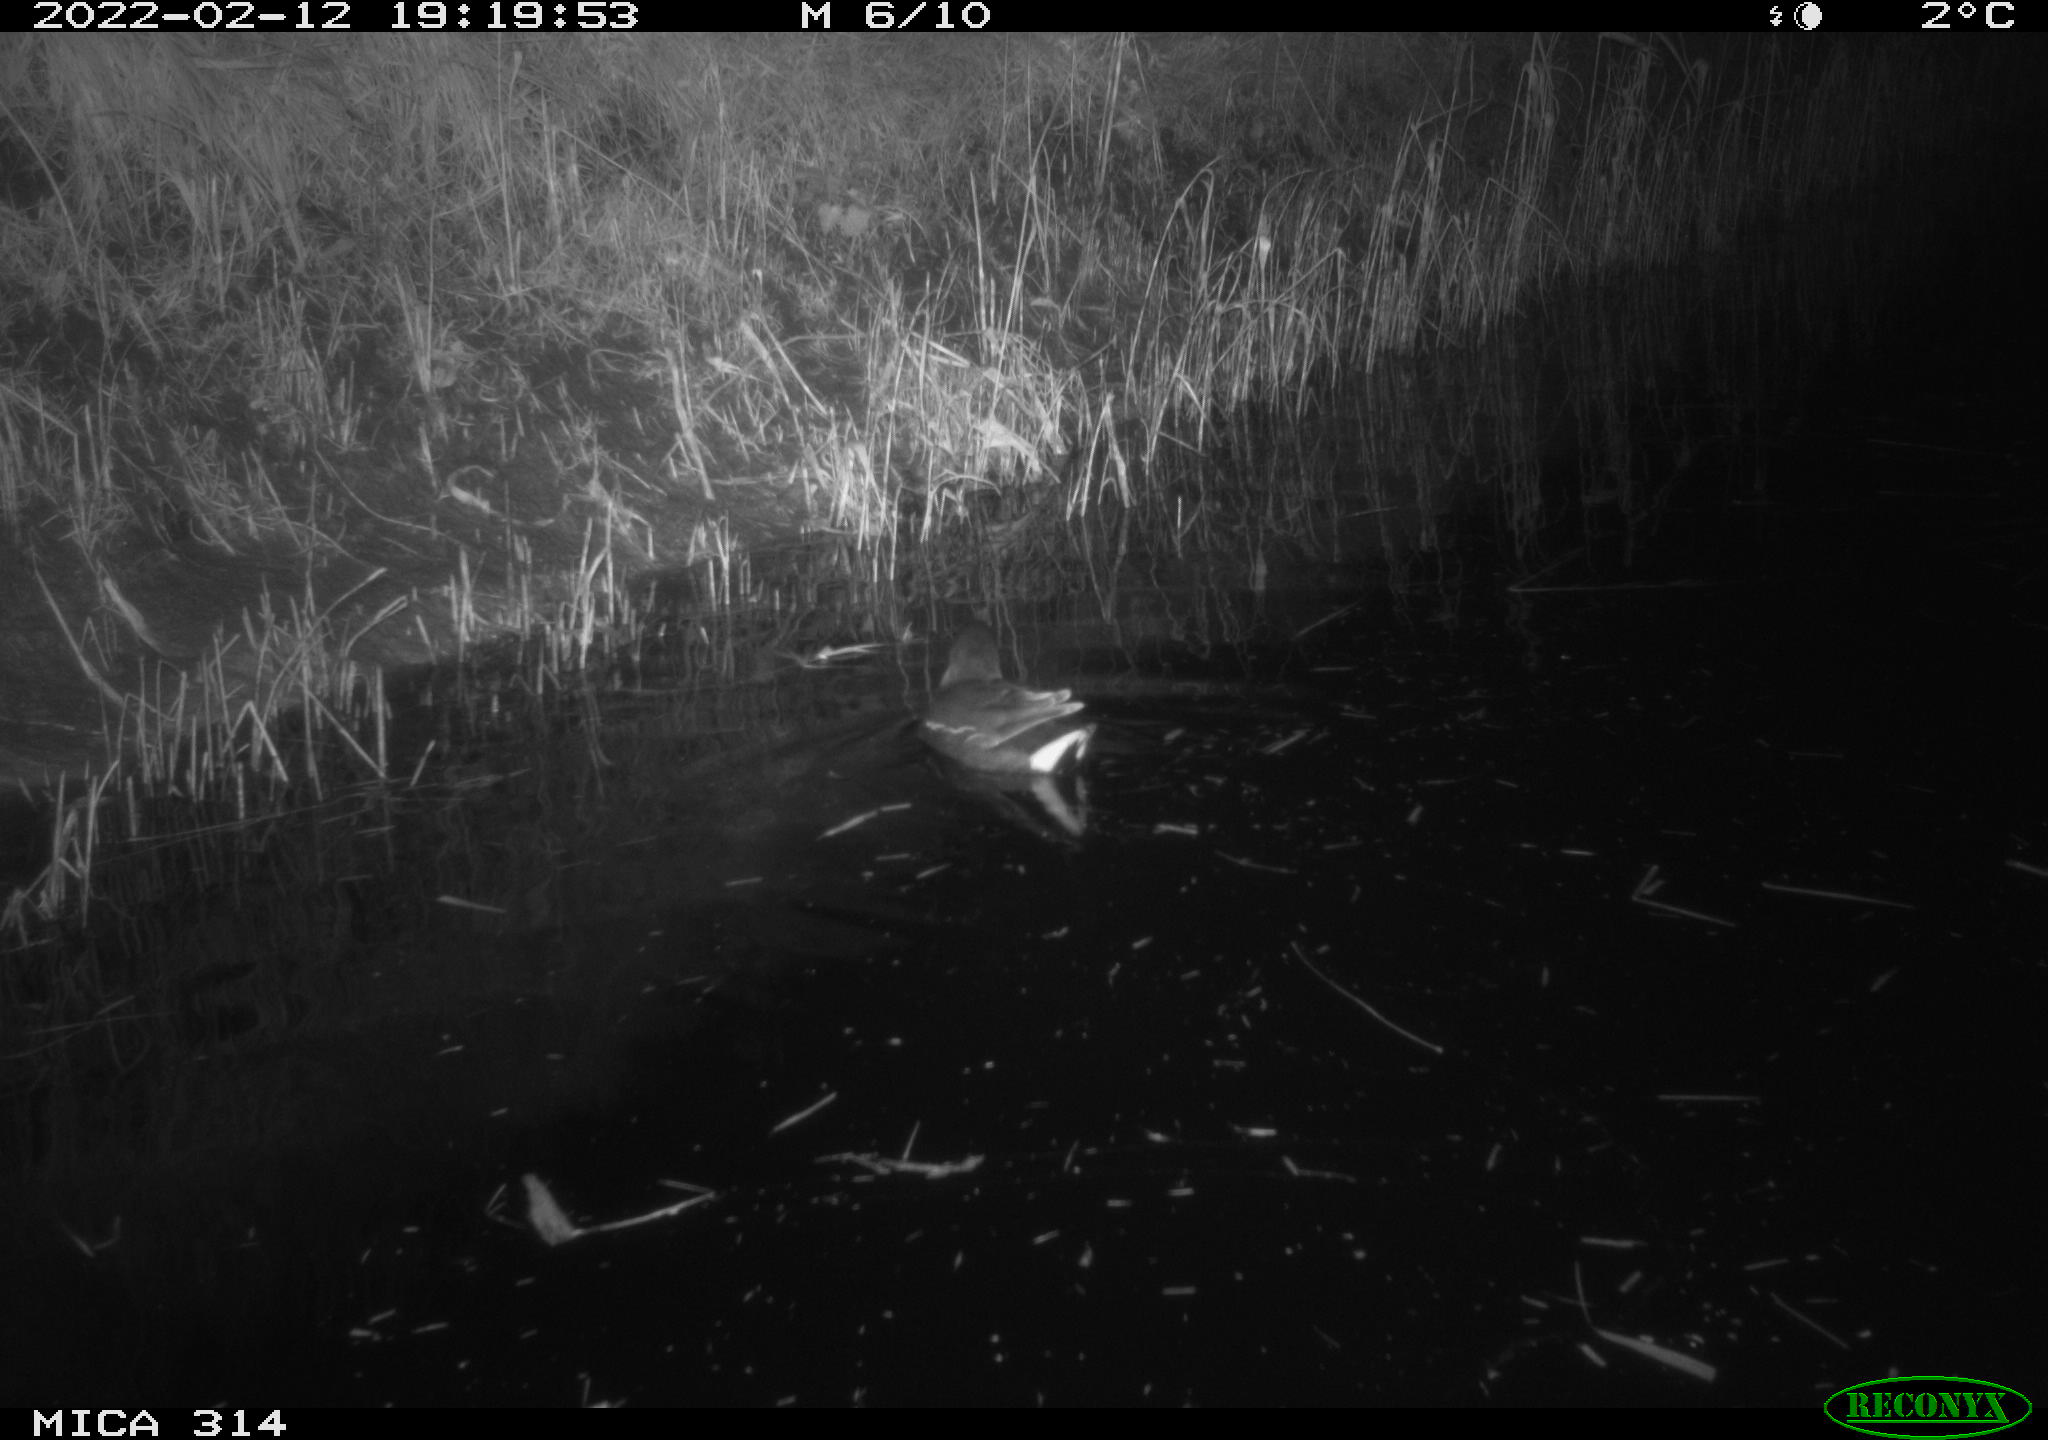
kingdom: Animalia
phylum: Chordata
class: Aves
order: Gruiformes
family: Rallidae
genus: Gallinula
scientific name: Gallinula chloropus
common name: Common moorhen
